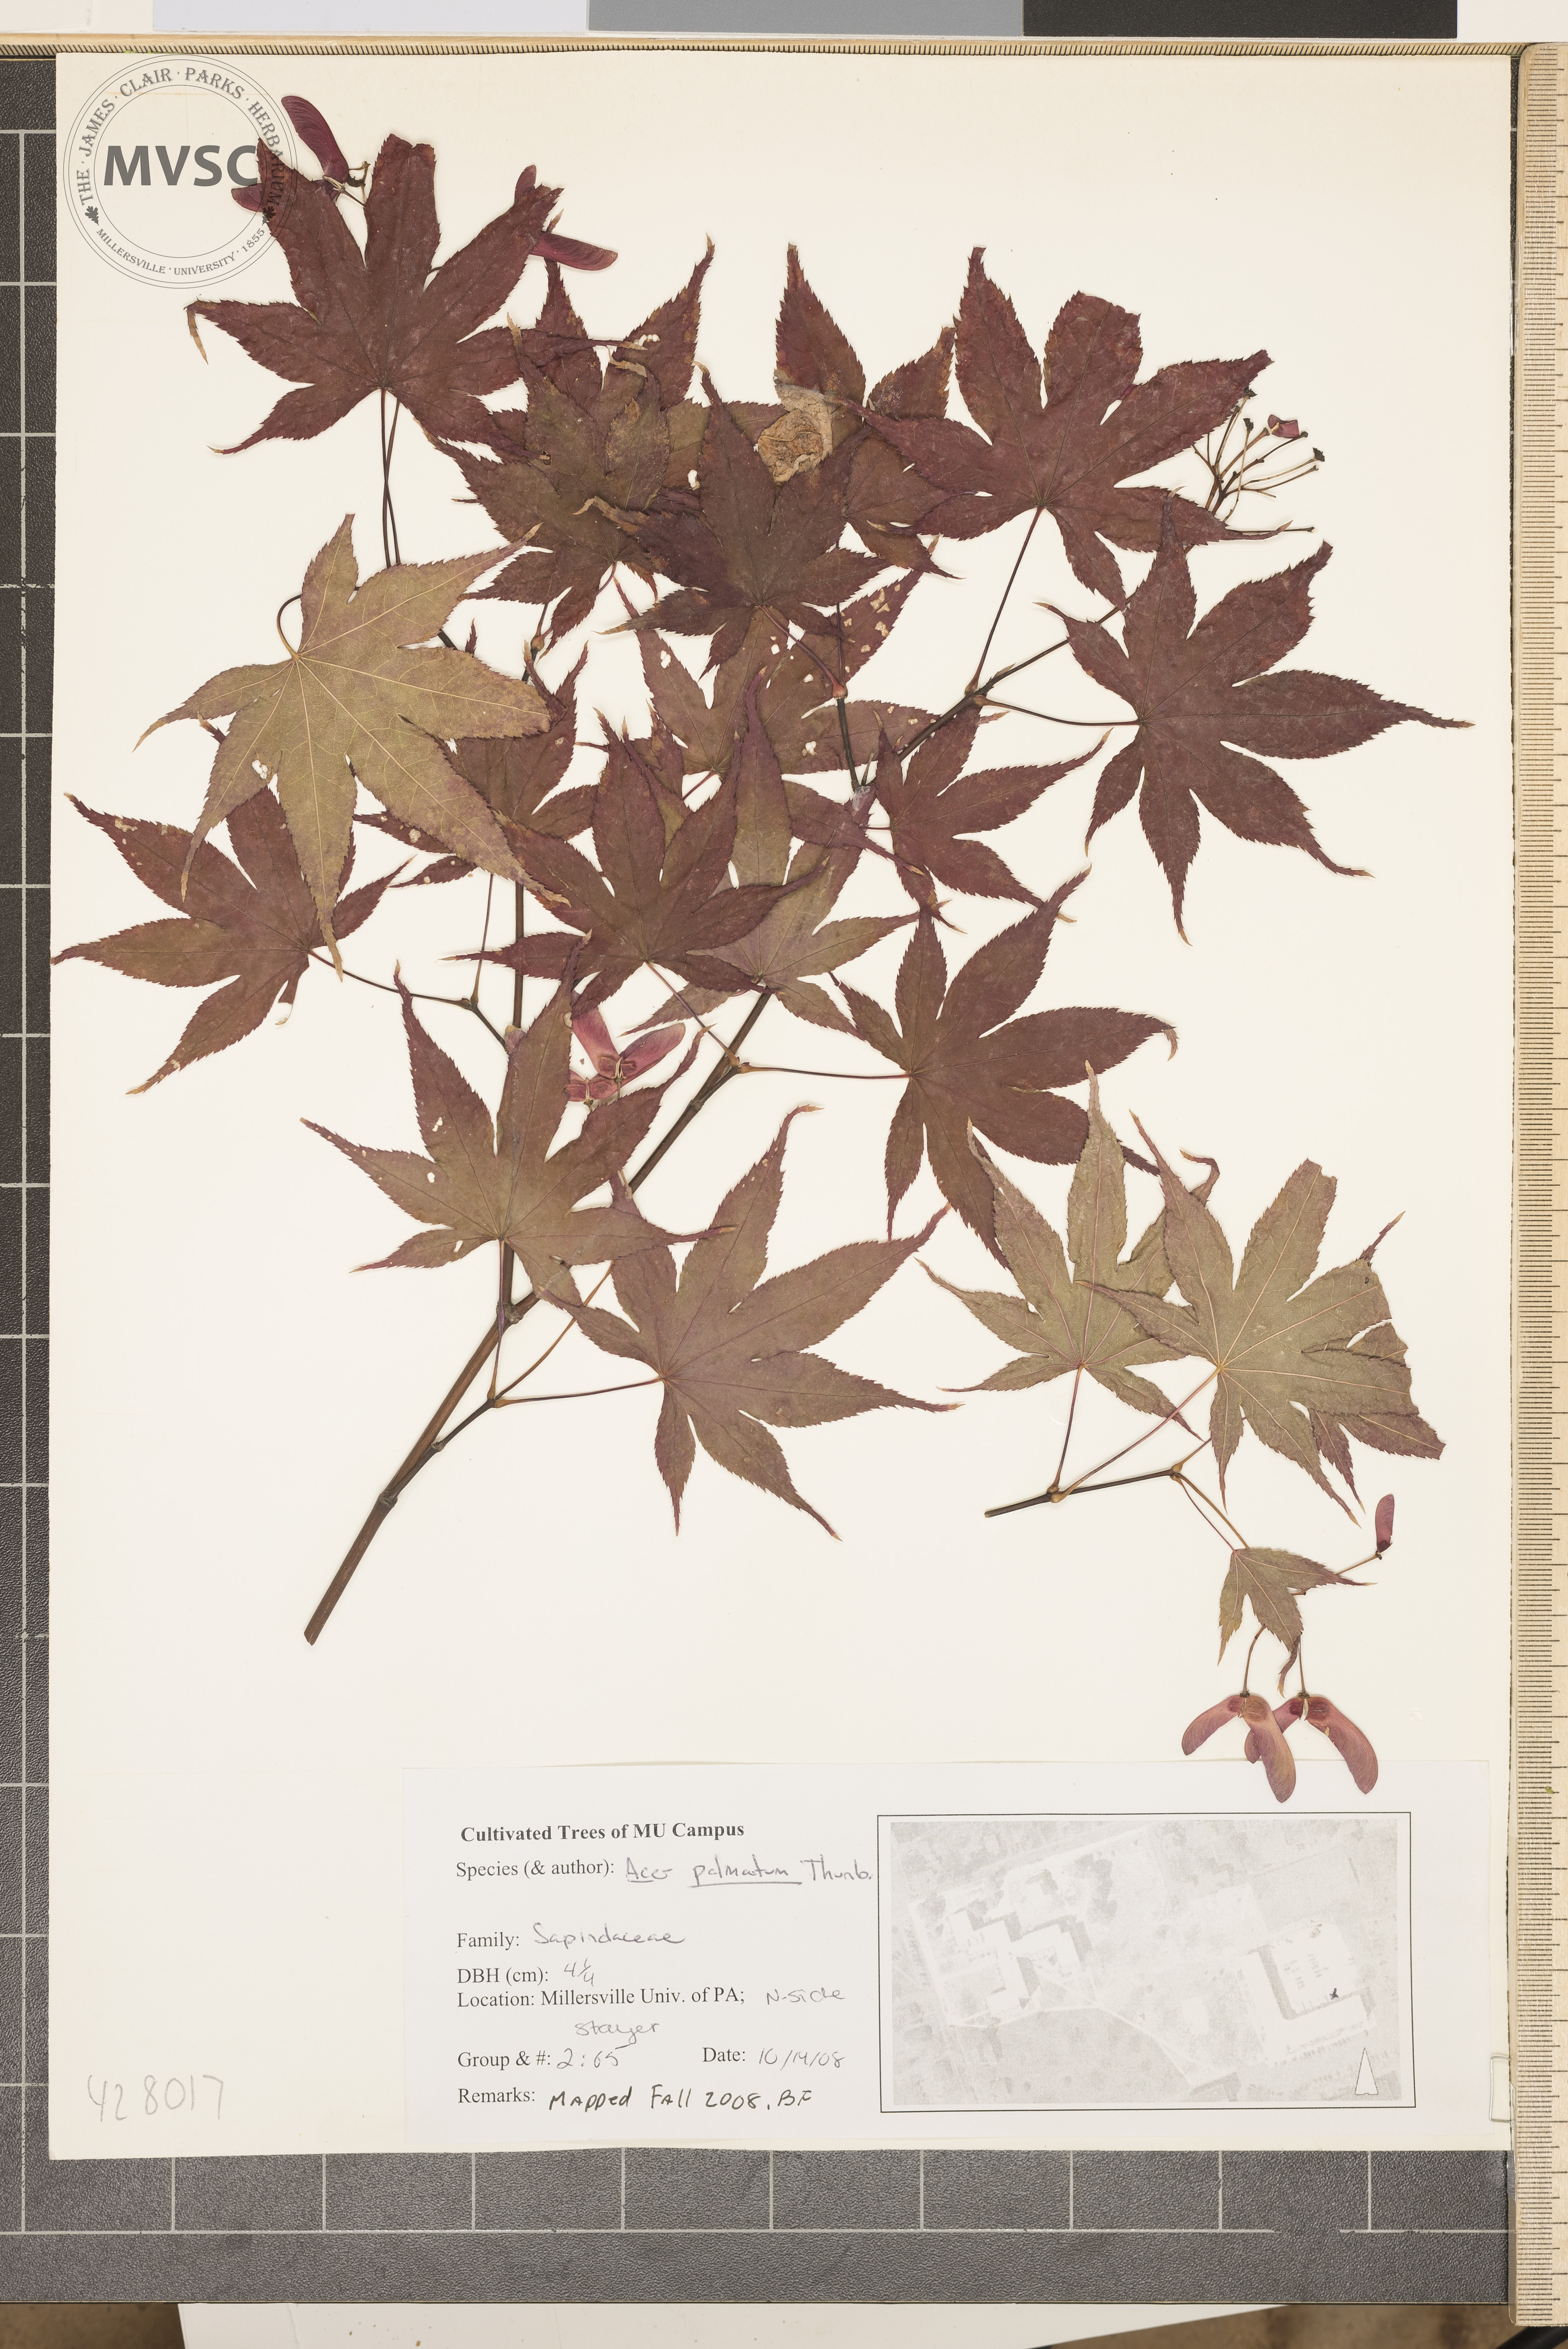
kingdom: Plantae
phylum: Tracheophyta
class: Magnoliopsida
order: Sapindales
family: Sapindaceae
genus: Acer
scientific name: Acer palmatum
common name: Japanese Maple
